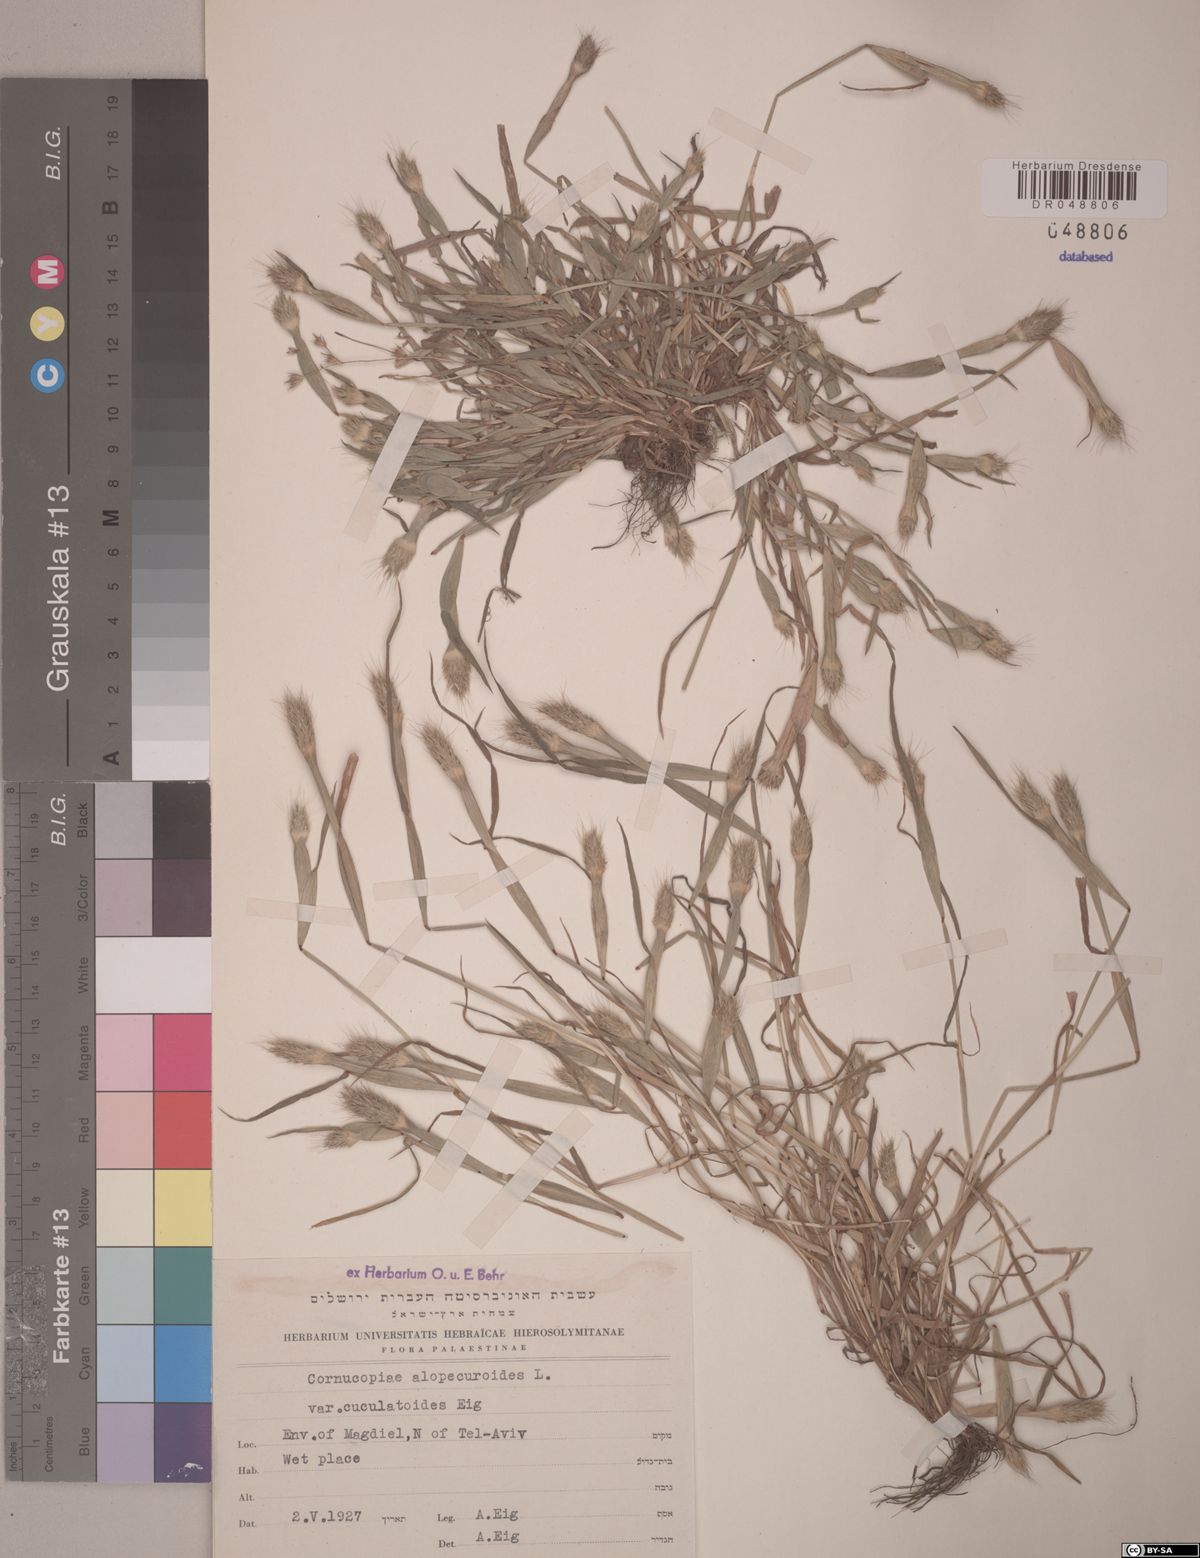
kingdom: Plantae
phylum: Tracheophyta
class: Liliopsida
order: Poales
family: Poaceae
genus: Cornucopiae
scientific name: Cornucopiae alopecuroides
